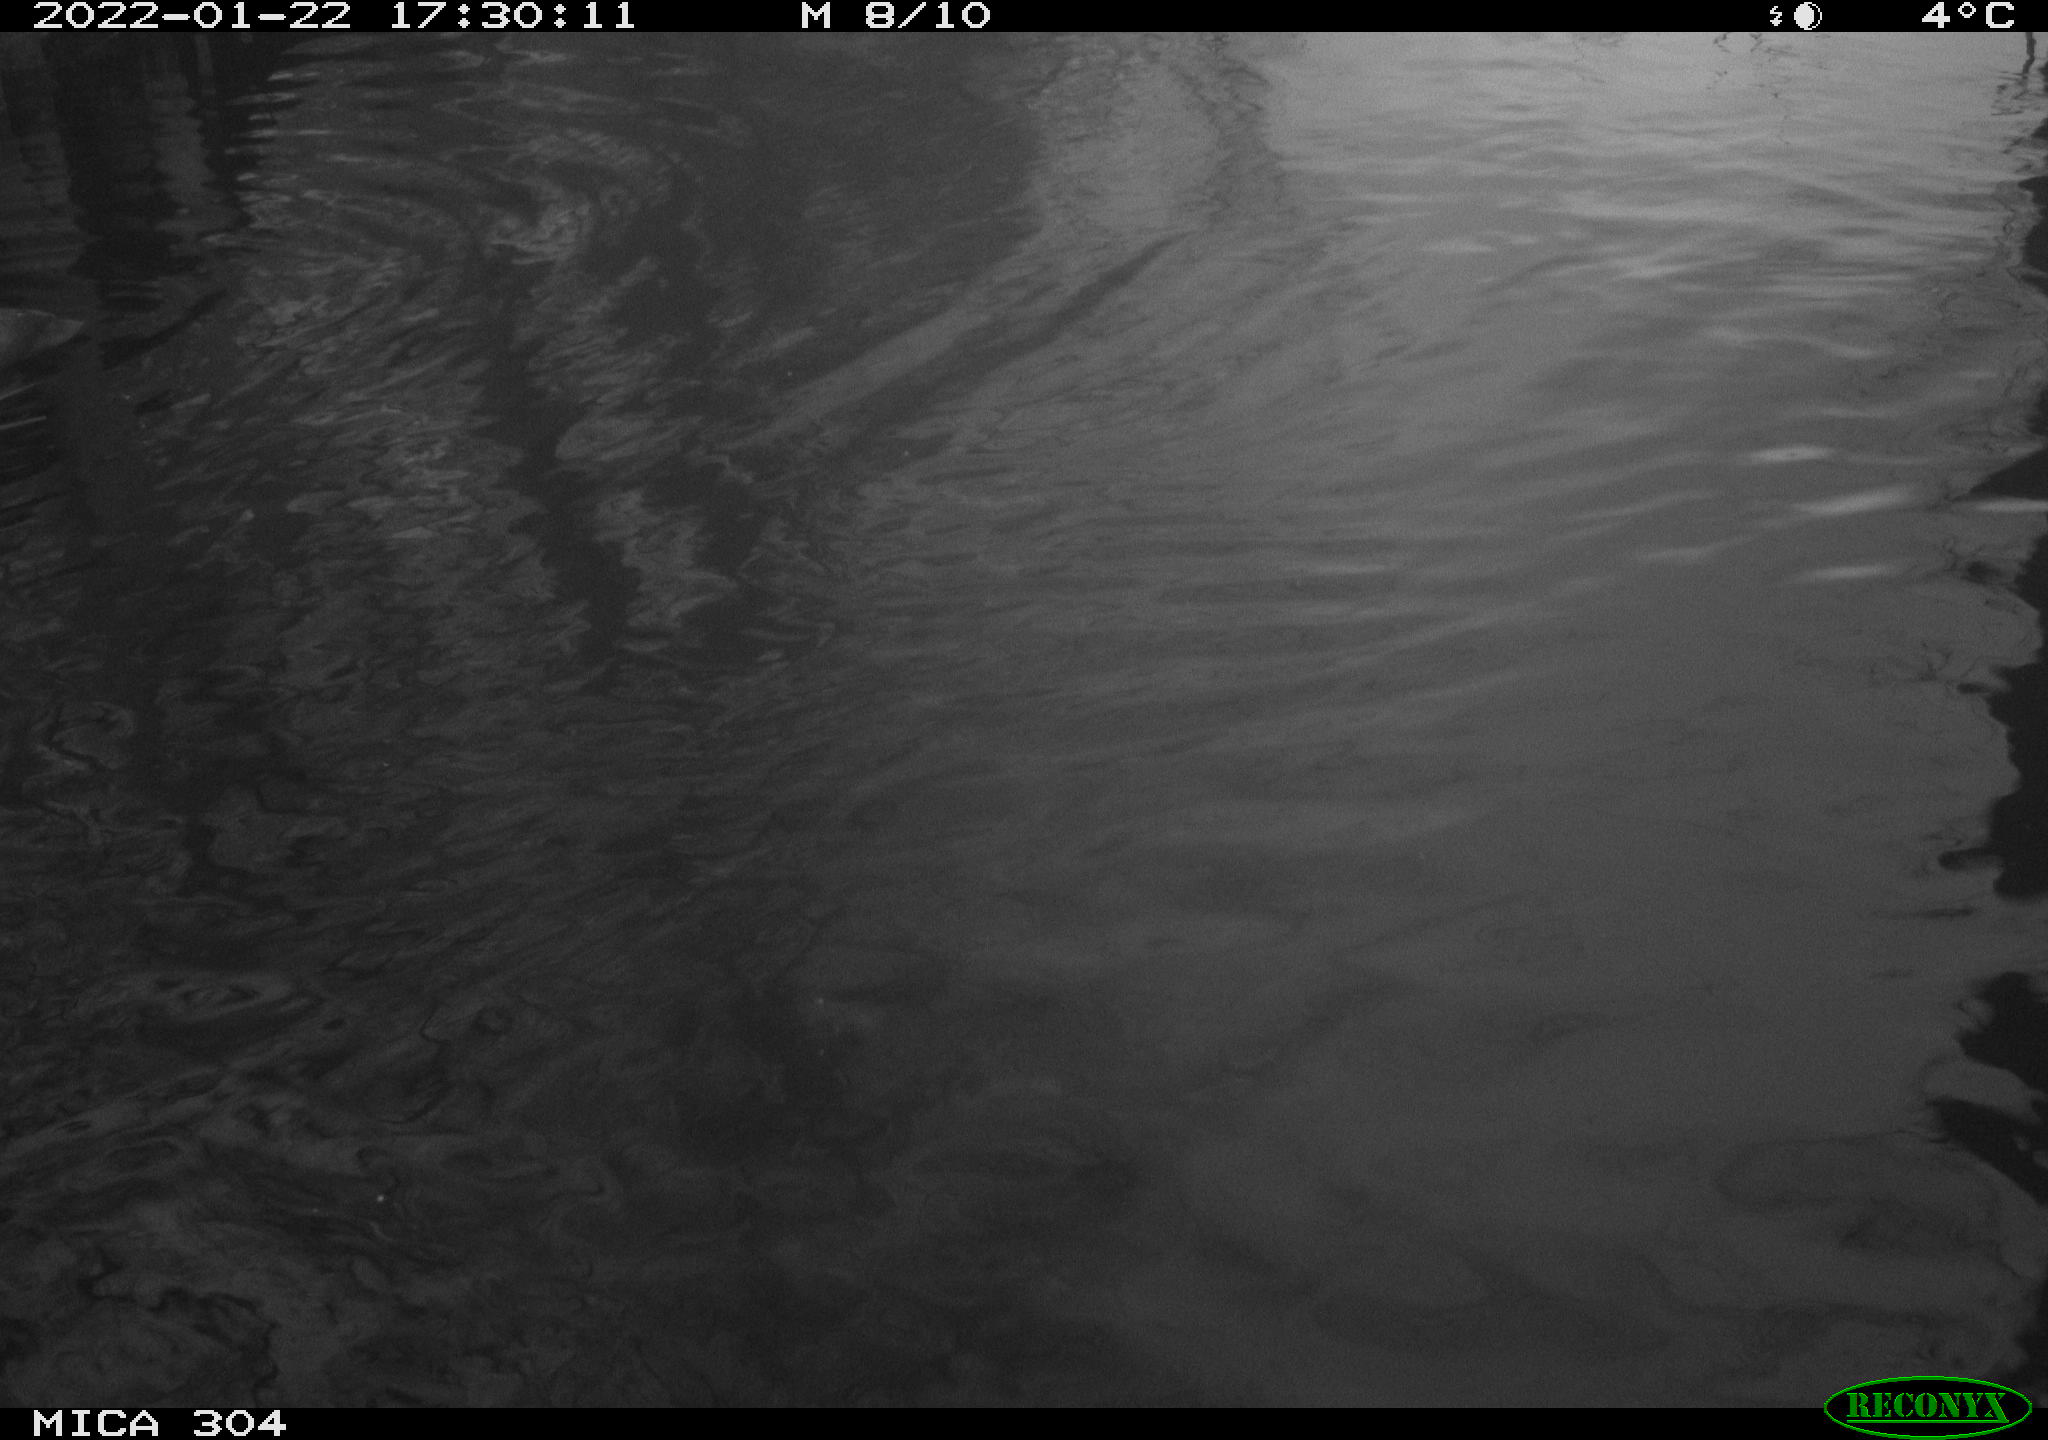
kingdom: Animalia
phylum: Chordata
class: Aves
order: Gruiformes
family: Rallidae
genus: Fulica
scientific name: Fulica atra
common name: Eurasian coot
